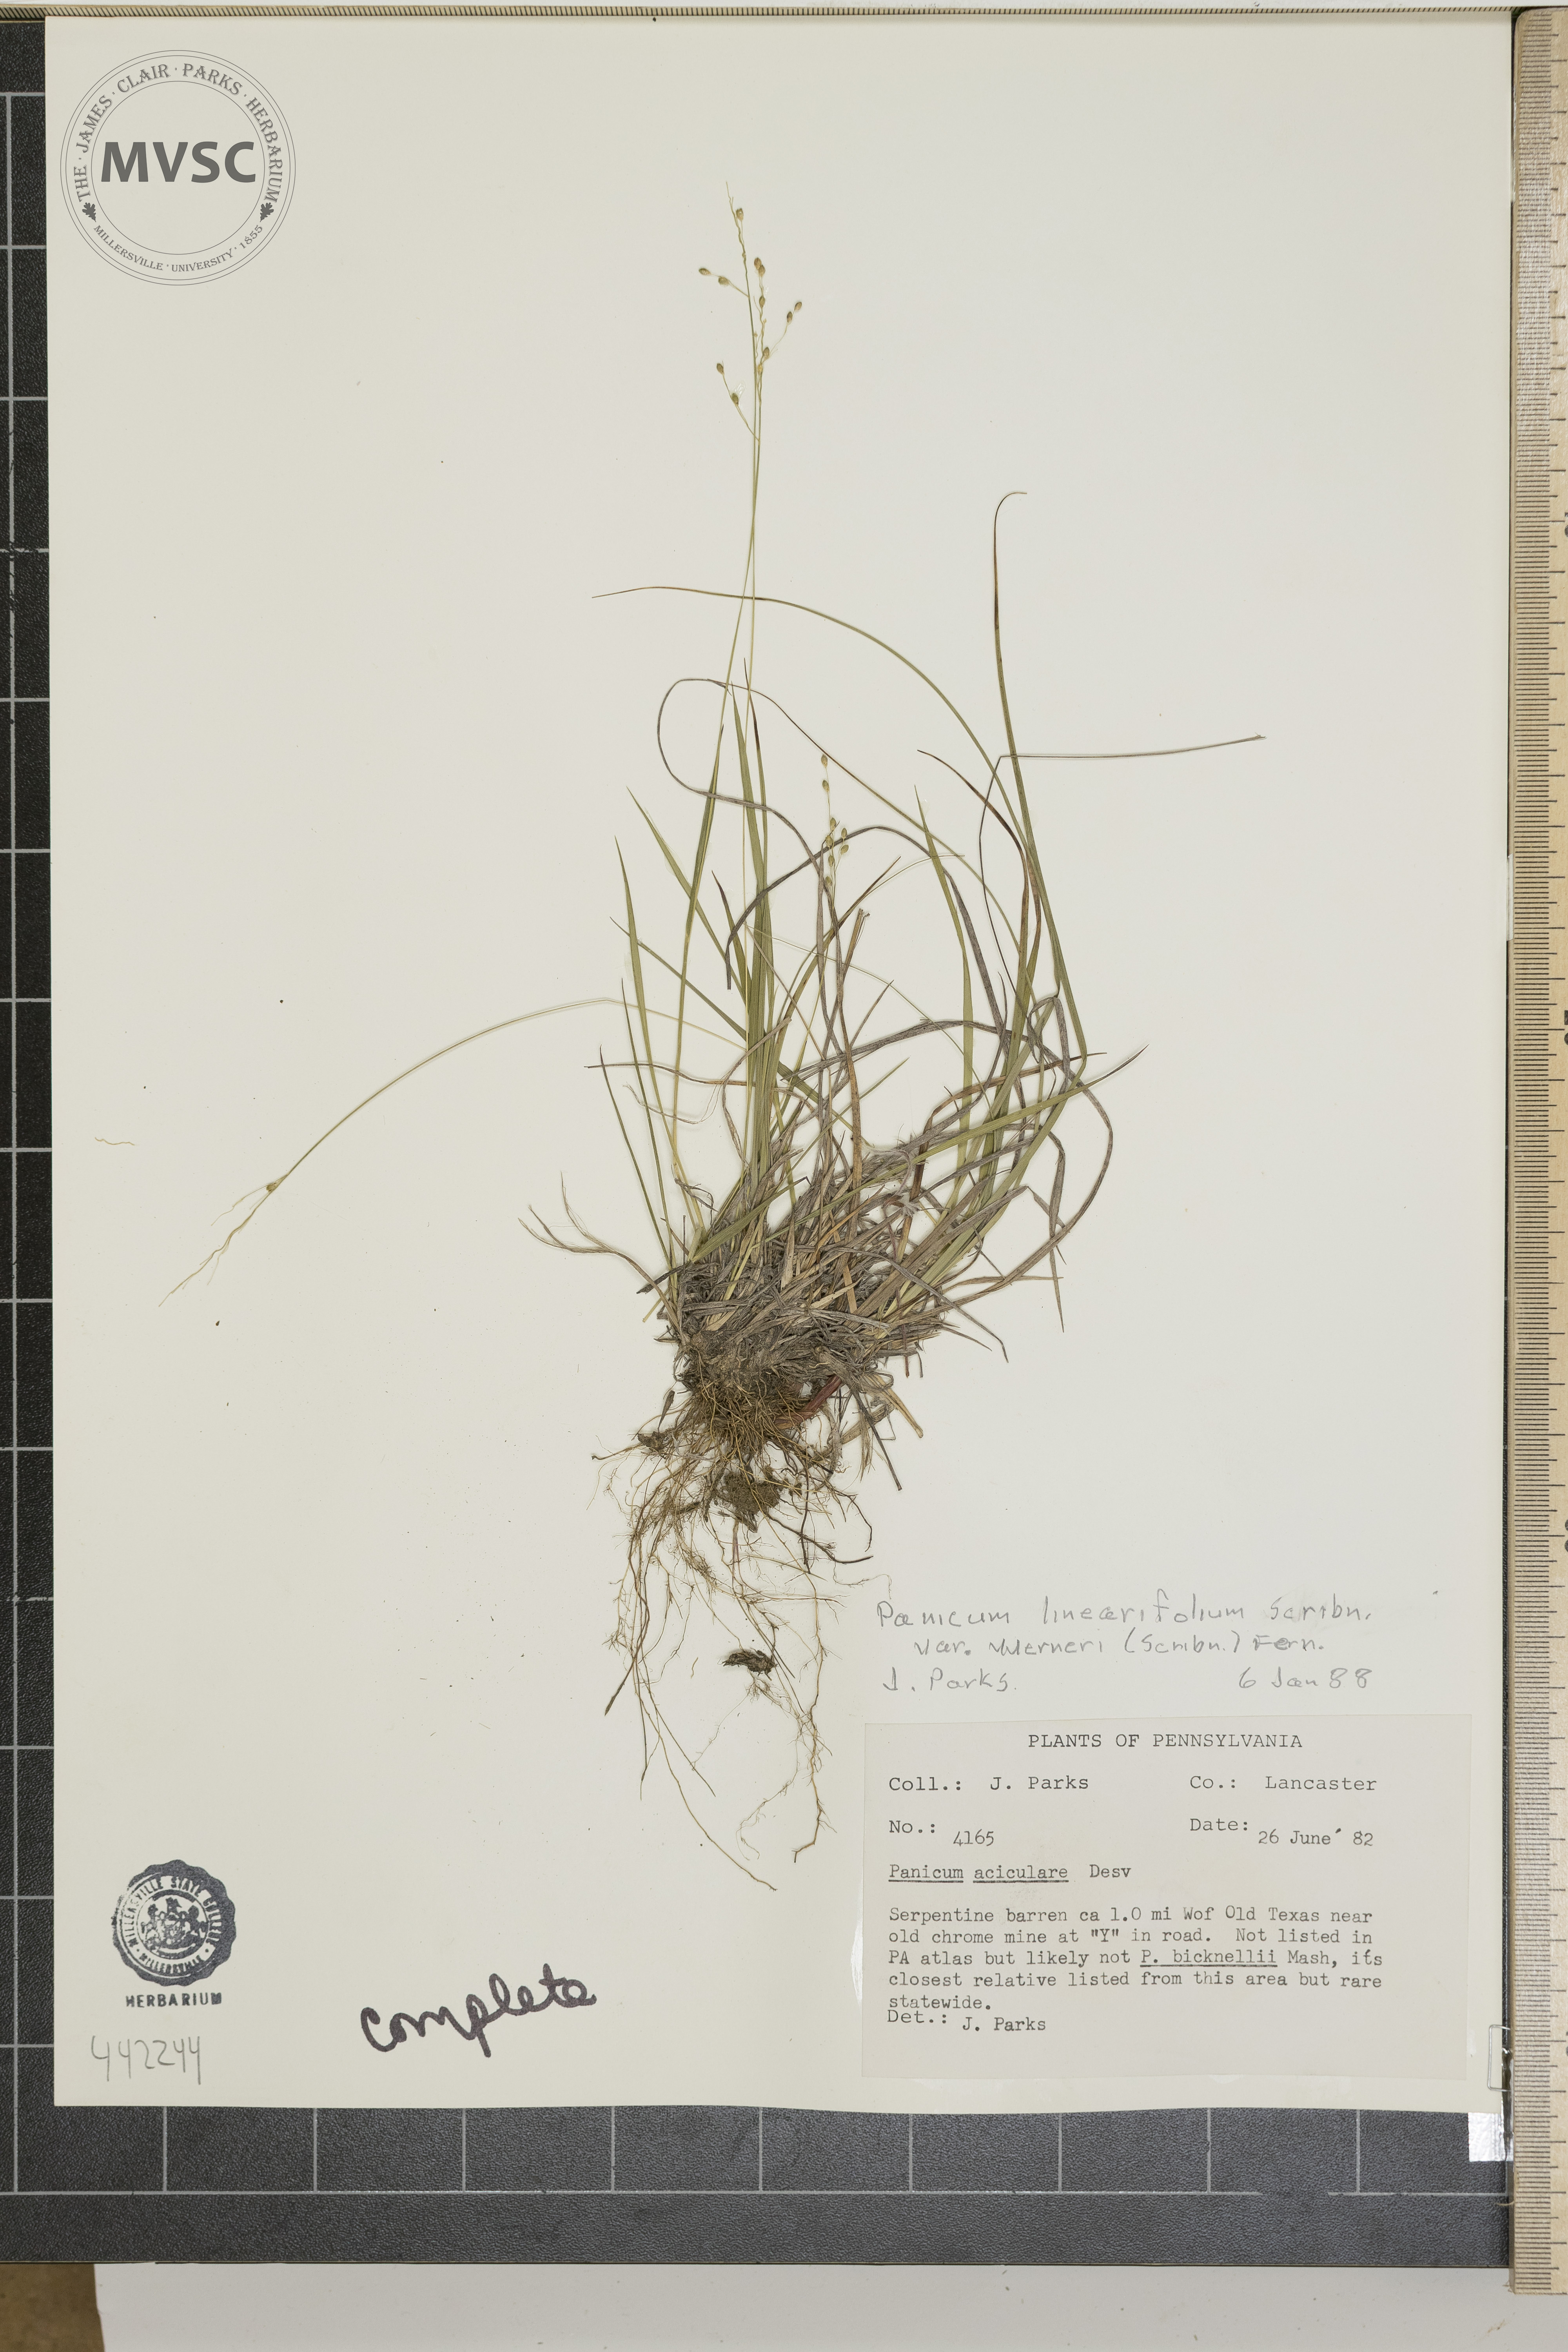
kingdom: Plantae
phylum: Tracheophyta
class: Liliopsida
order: Poales
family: Poaceae
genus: Dichanthelium
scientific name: Dichanthelium linearifolium
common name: Linear-leaved panicgrass
